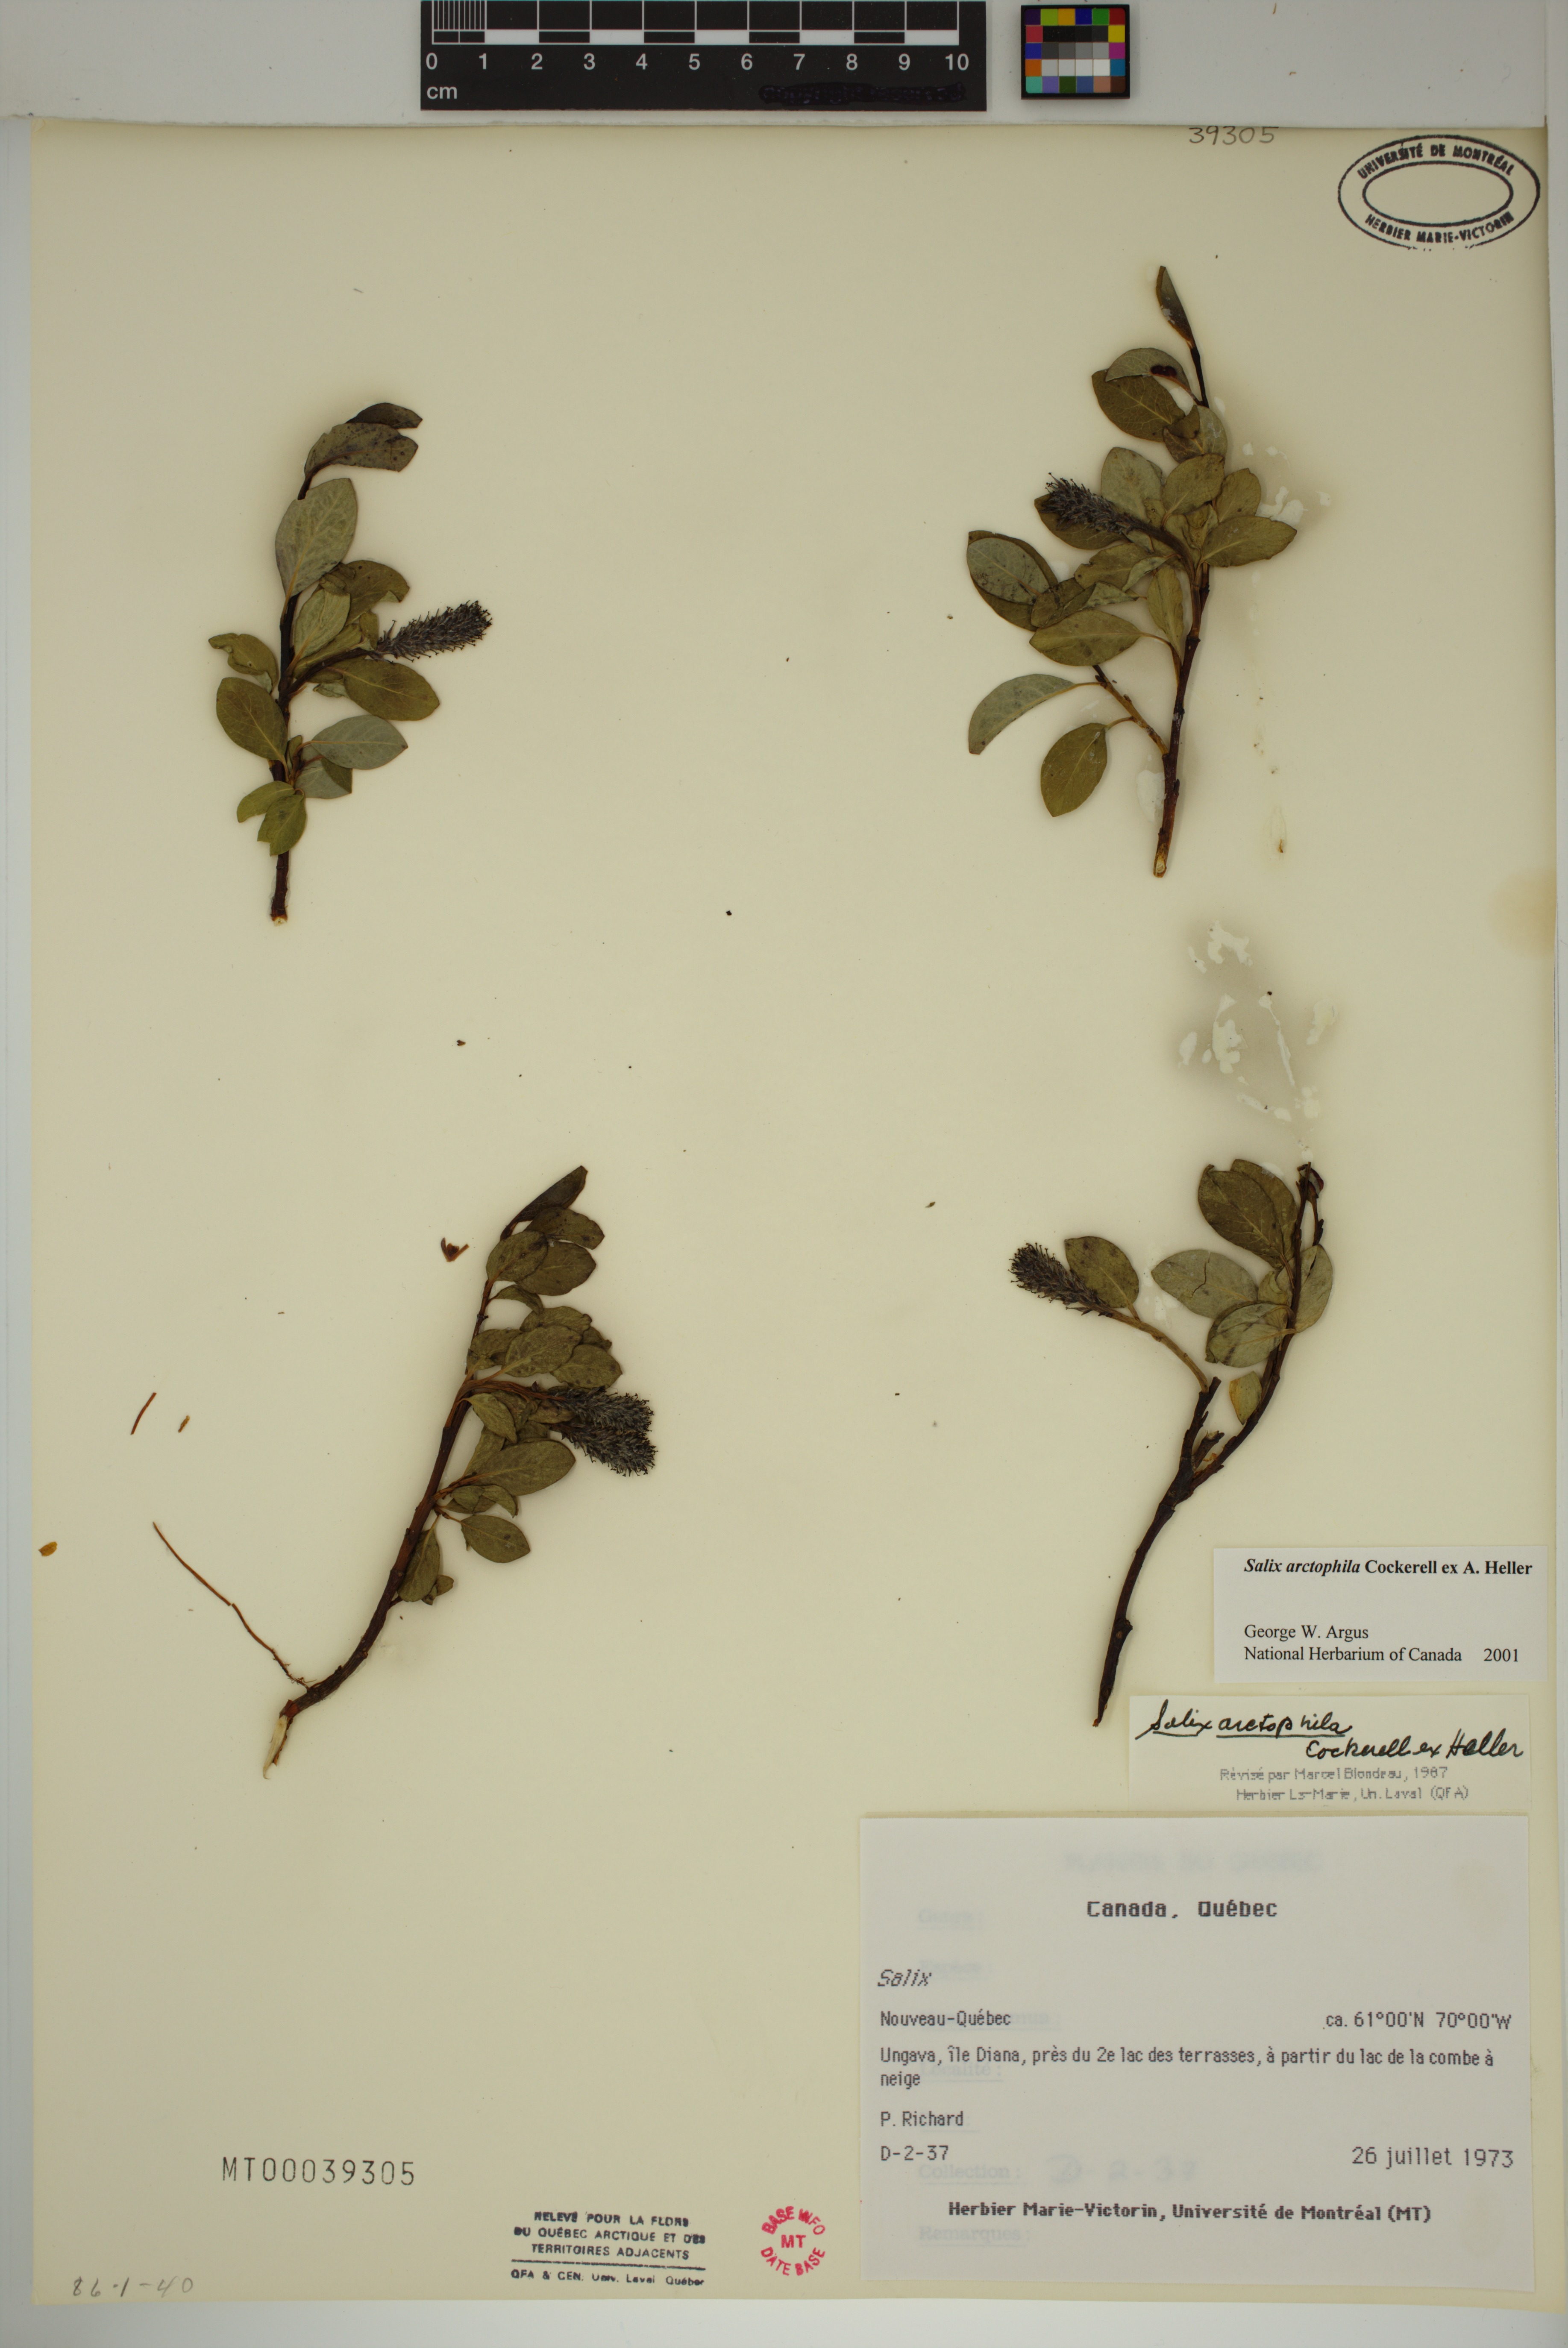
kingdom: Plantae
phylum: Tracheophyta
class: Magnoliopsida
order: Malpighiales
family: Salicaceae
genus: Salix
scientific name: Salix arctophila
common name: Greenland willow
